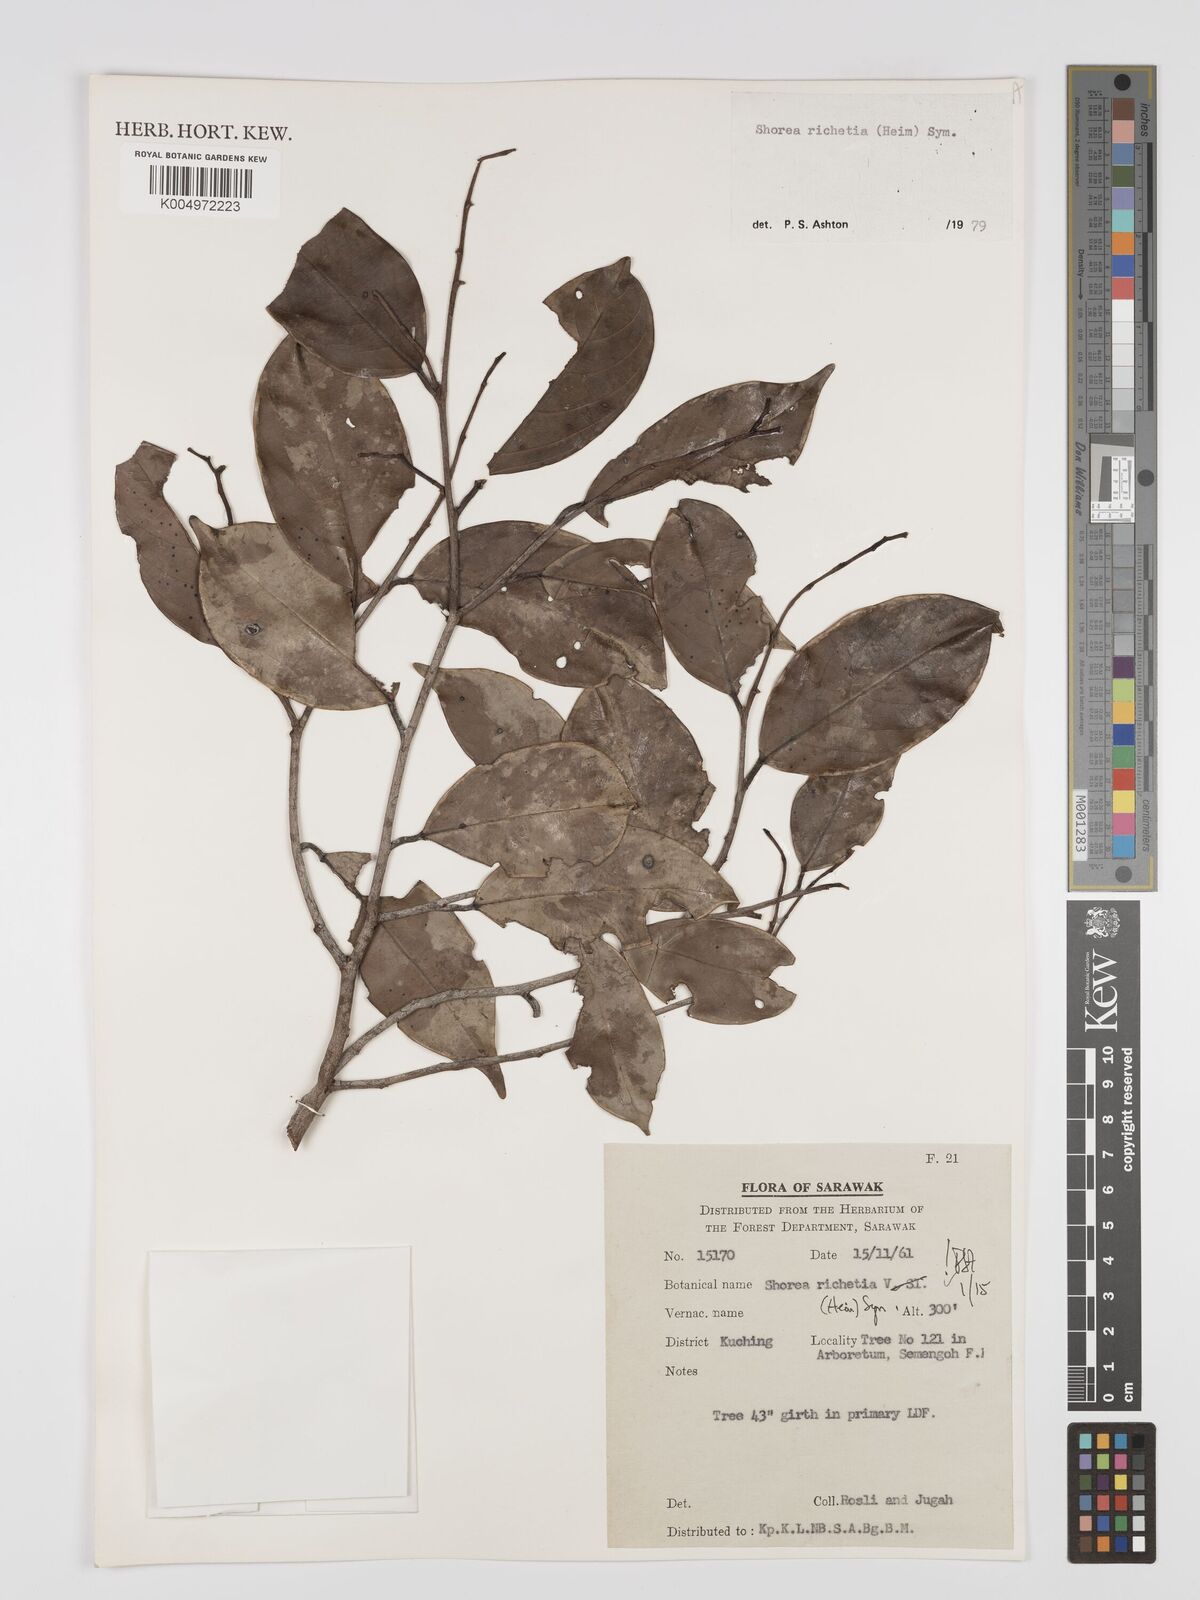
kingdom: Plantae
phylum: Tracheophyta
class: Magnoliopsida
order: Malvales
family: Dipterocarpaceae
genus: Shorea
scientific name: Shorea richetia
